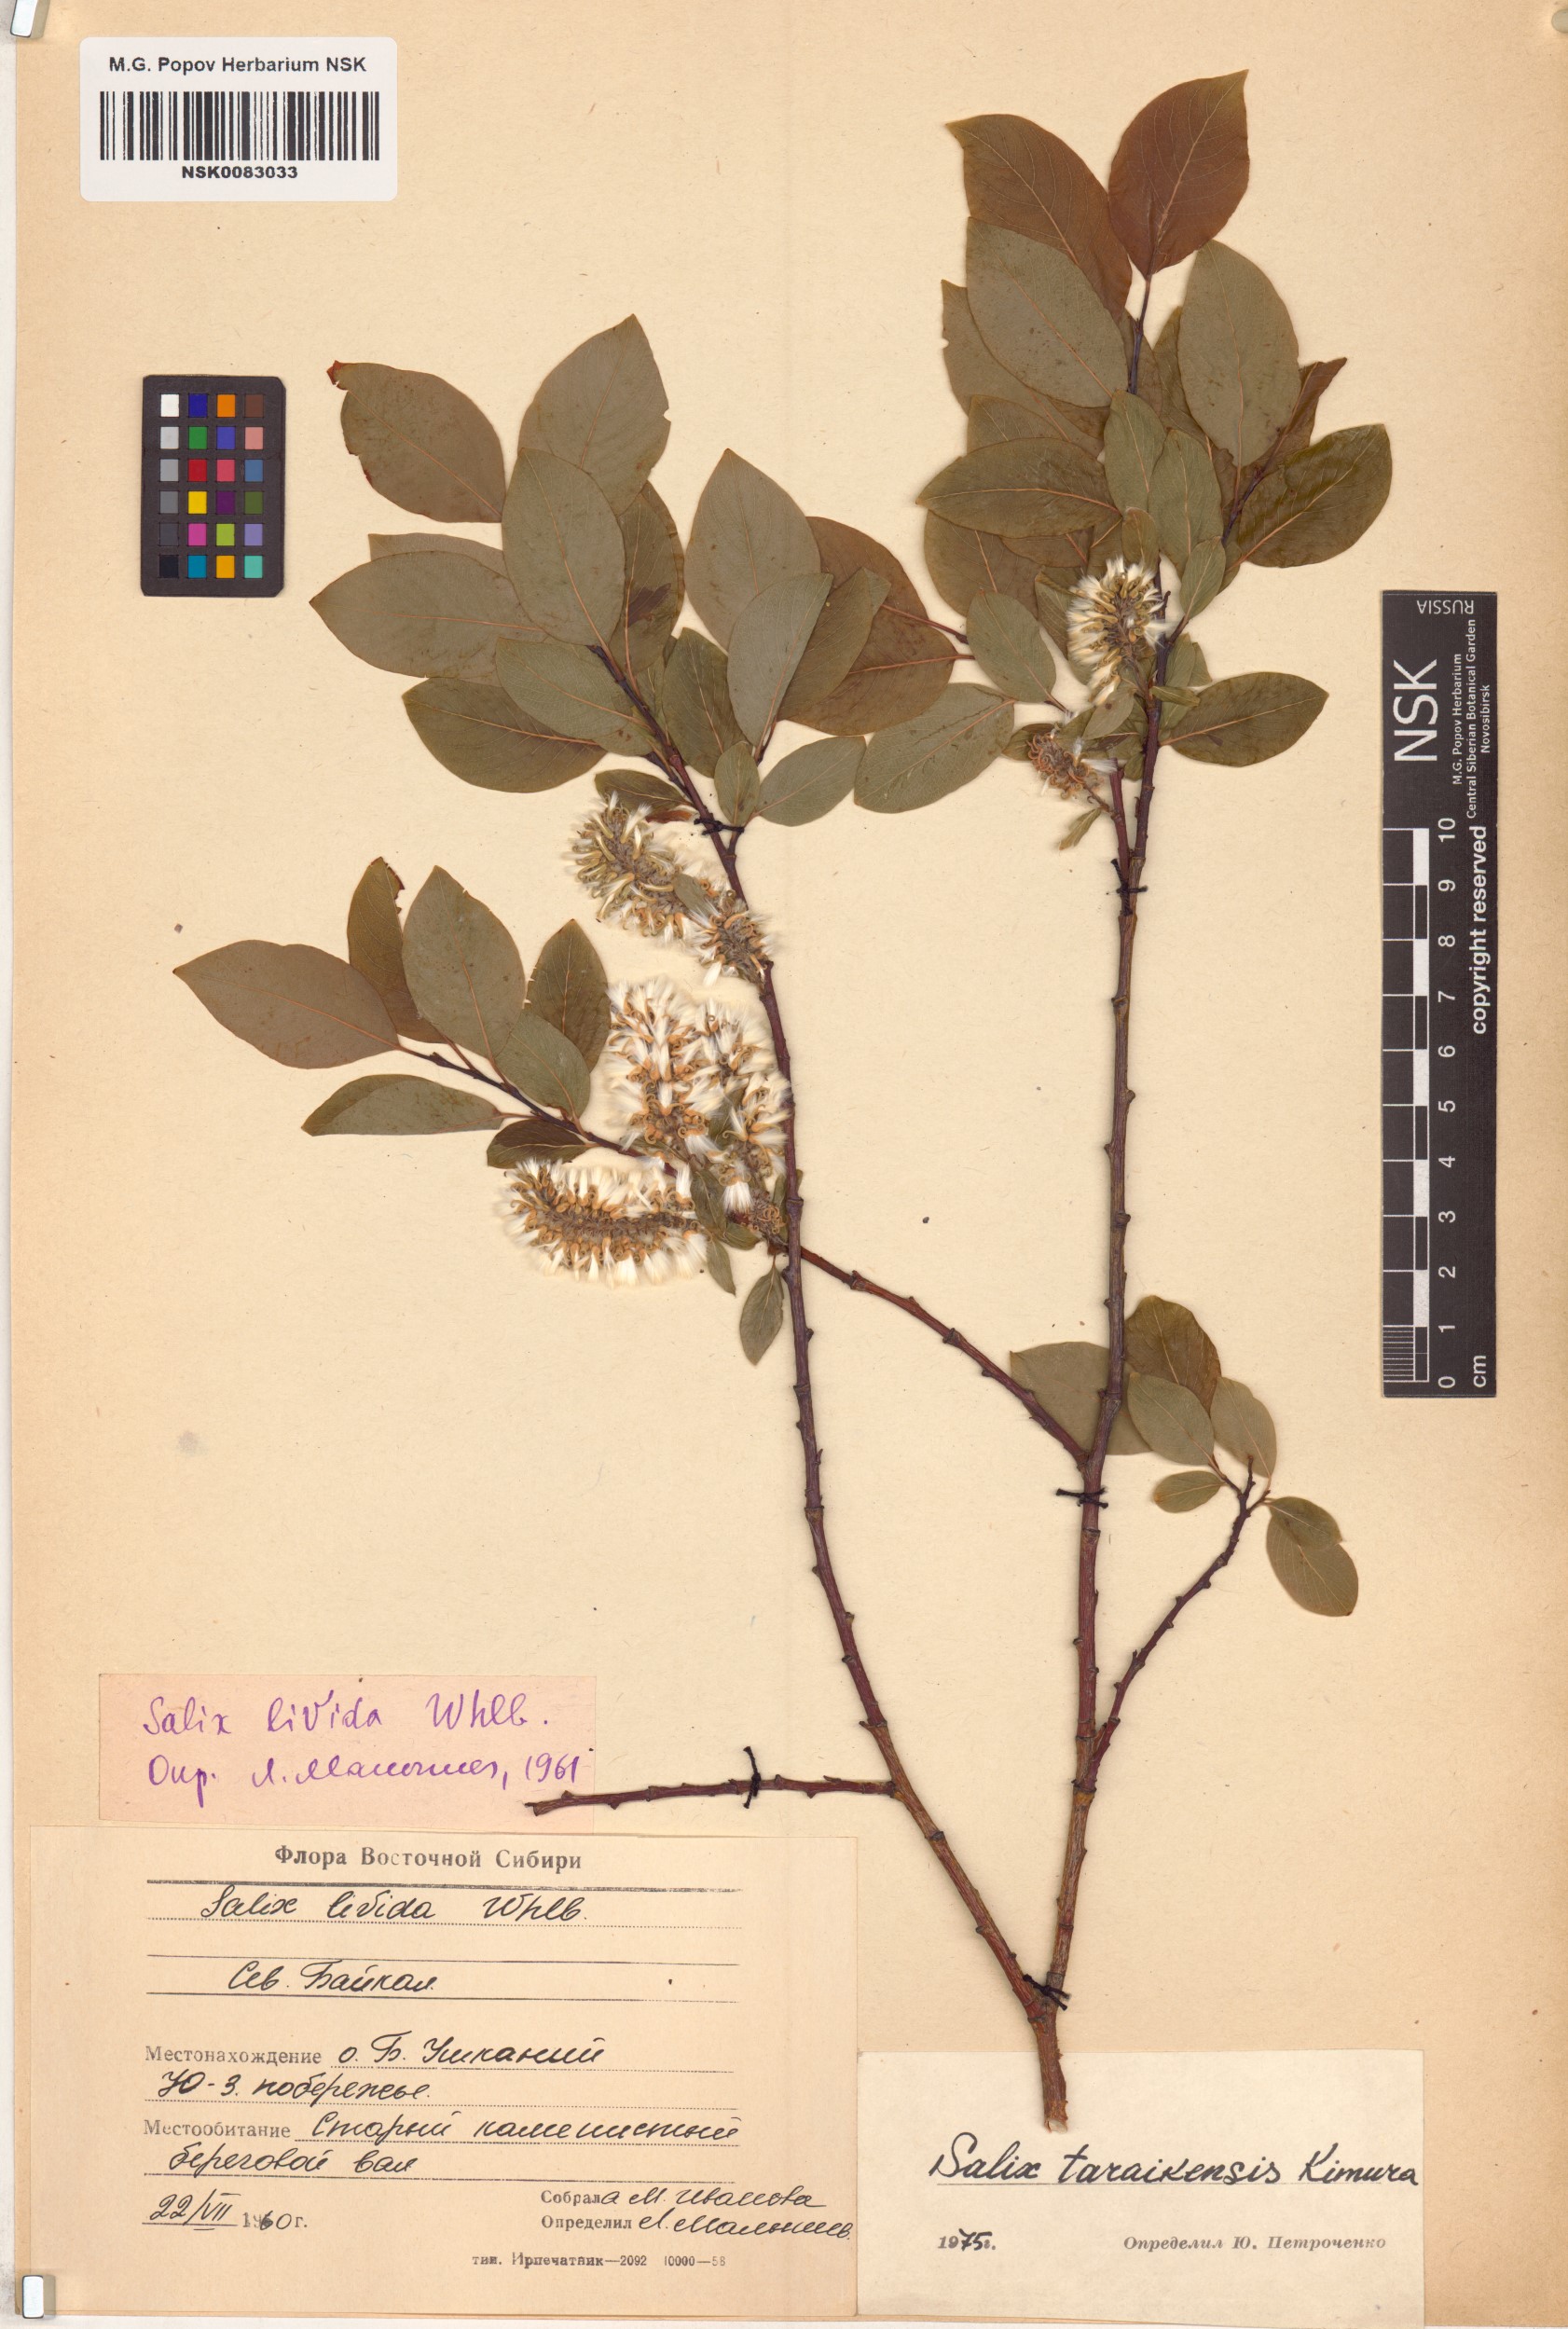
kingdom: Plantae
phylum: Tracheophyta
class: Magnoliopsida
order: Malpighiales
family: Salicaceae
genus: Salix
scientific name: Salix taraikensis
